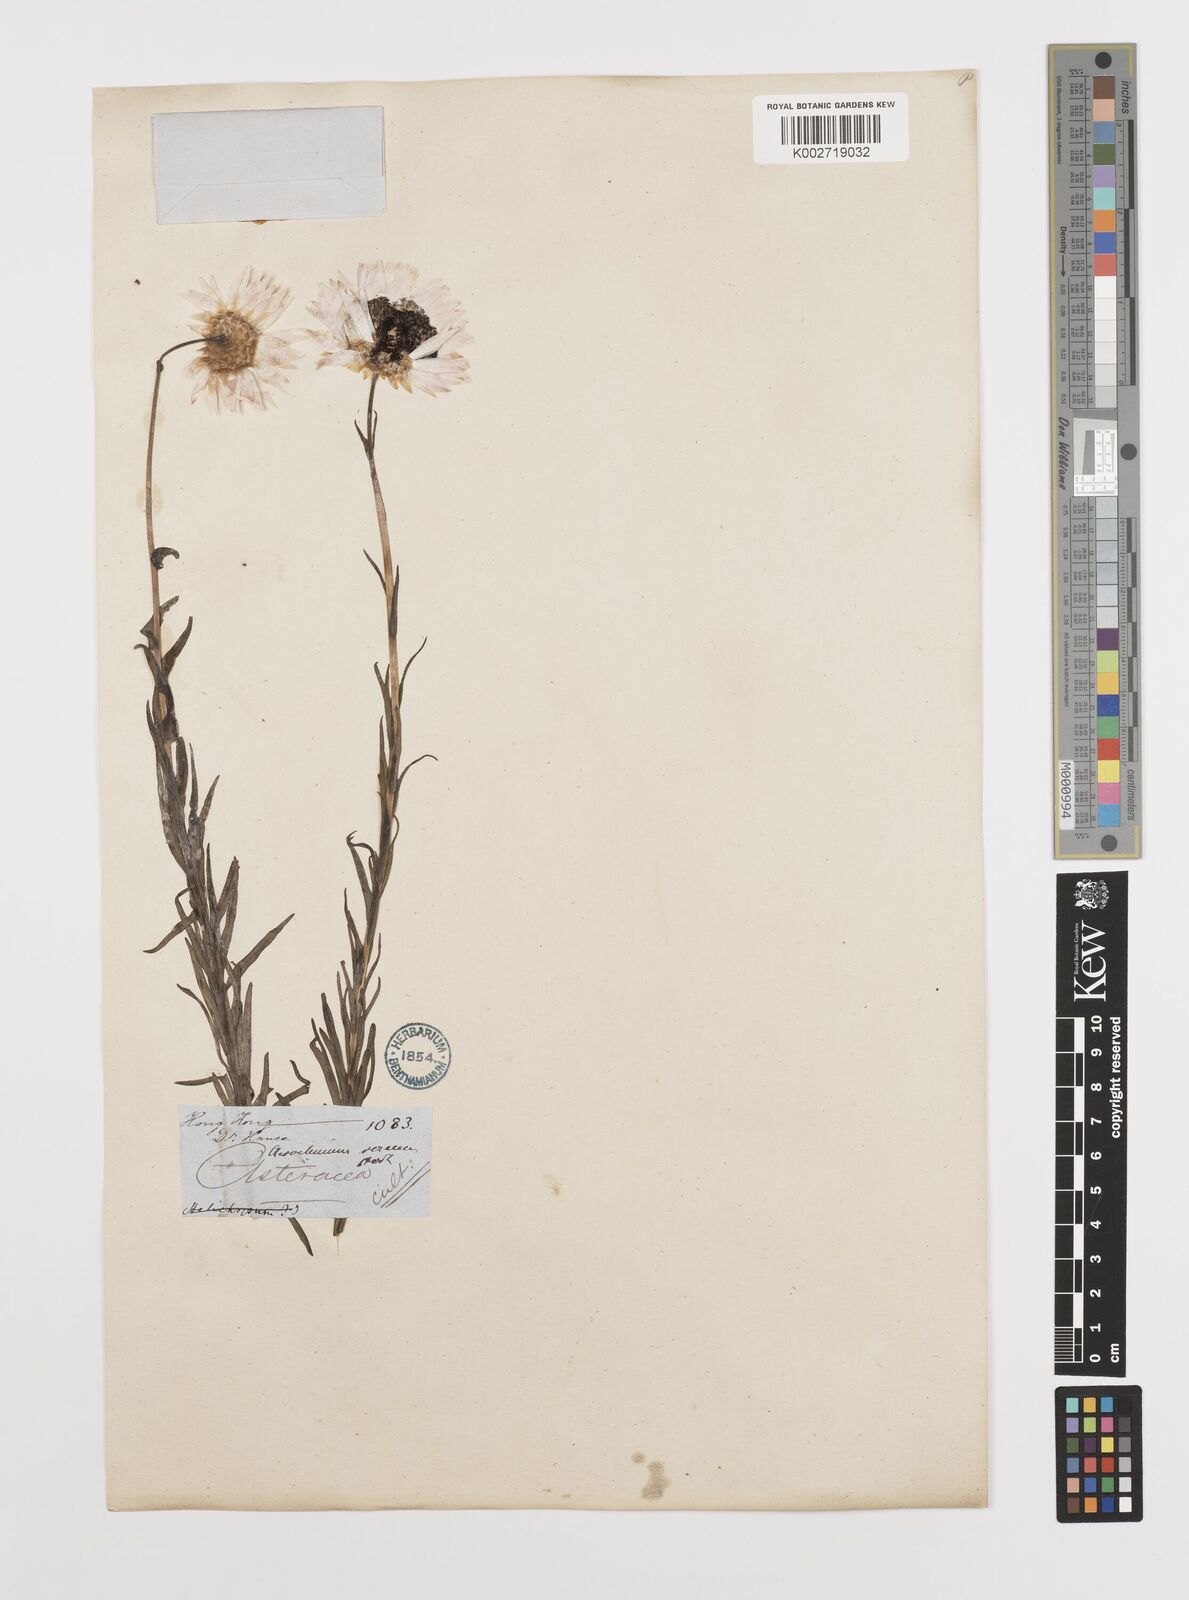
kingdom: Plantae
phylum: Tracheophyta
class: Magnoliopsida
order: Asterales
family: Asteraceae
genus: Rhodanthe
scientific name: Rhodanthe chlorocephala
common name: Rosy sunray
